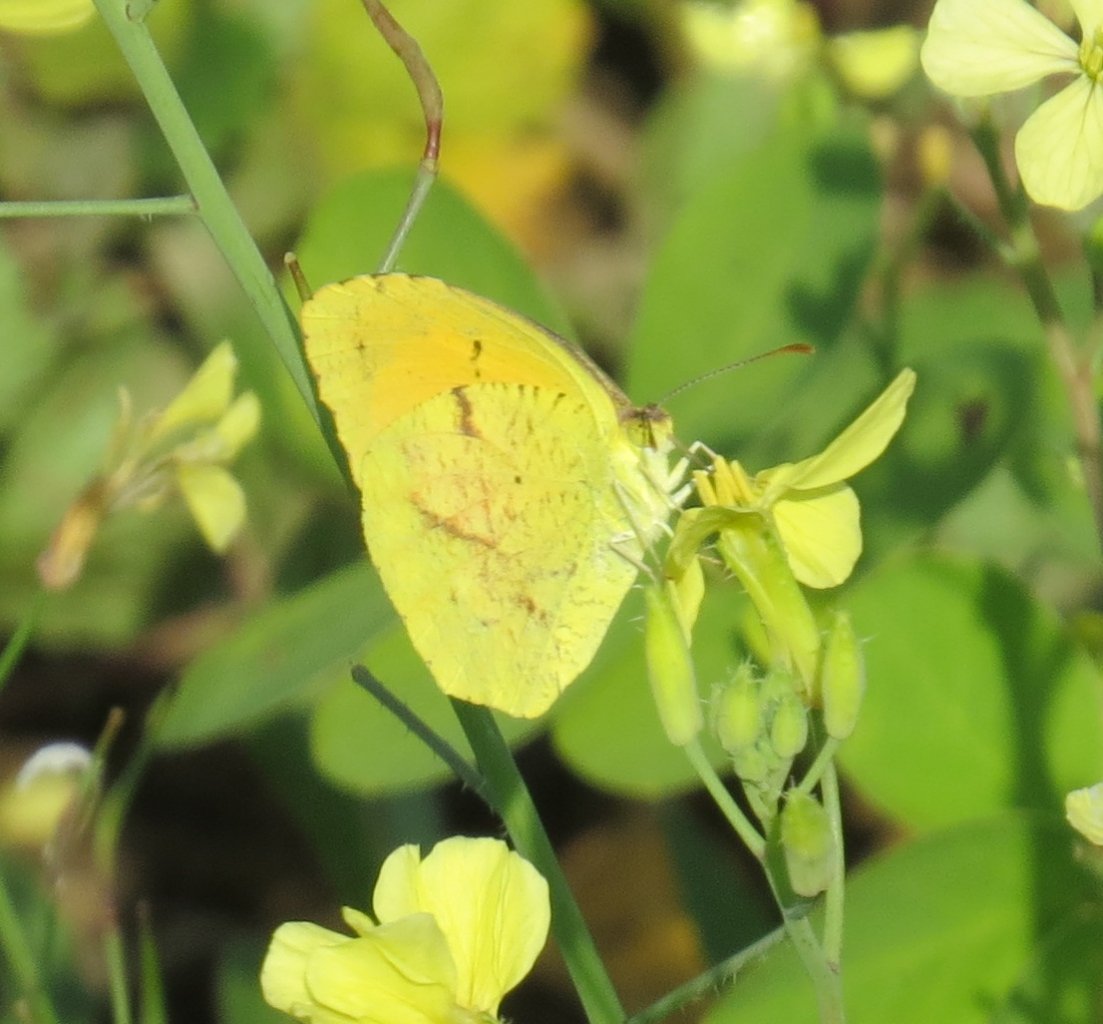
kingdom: Animalia
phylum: Arthropoda
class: Insecta
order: Lepidoptera
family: Pieridae
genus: Abaeis
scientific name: Abaeis nicippe
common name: Sleepy Orange
